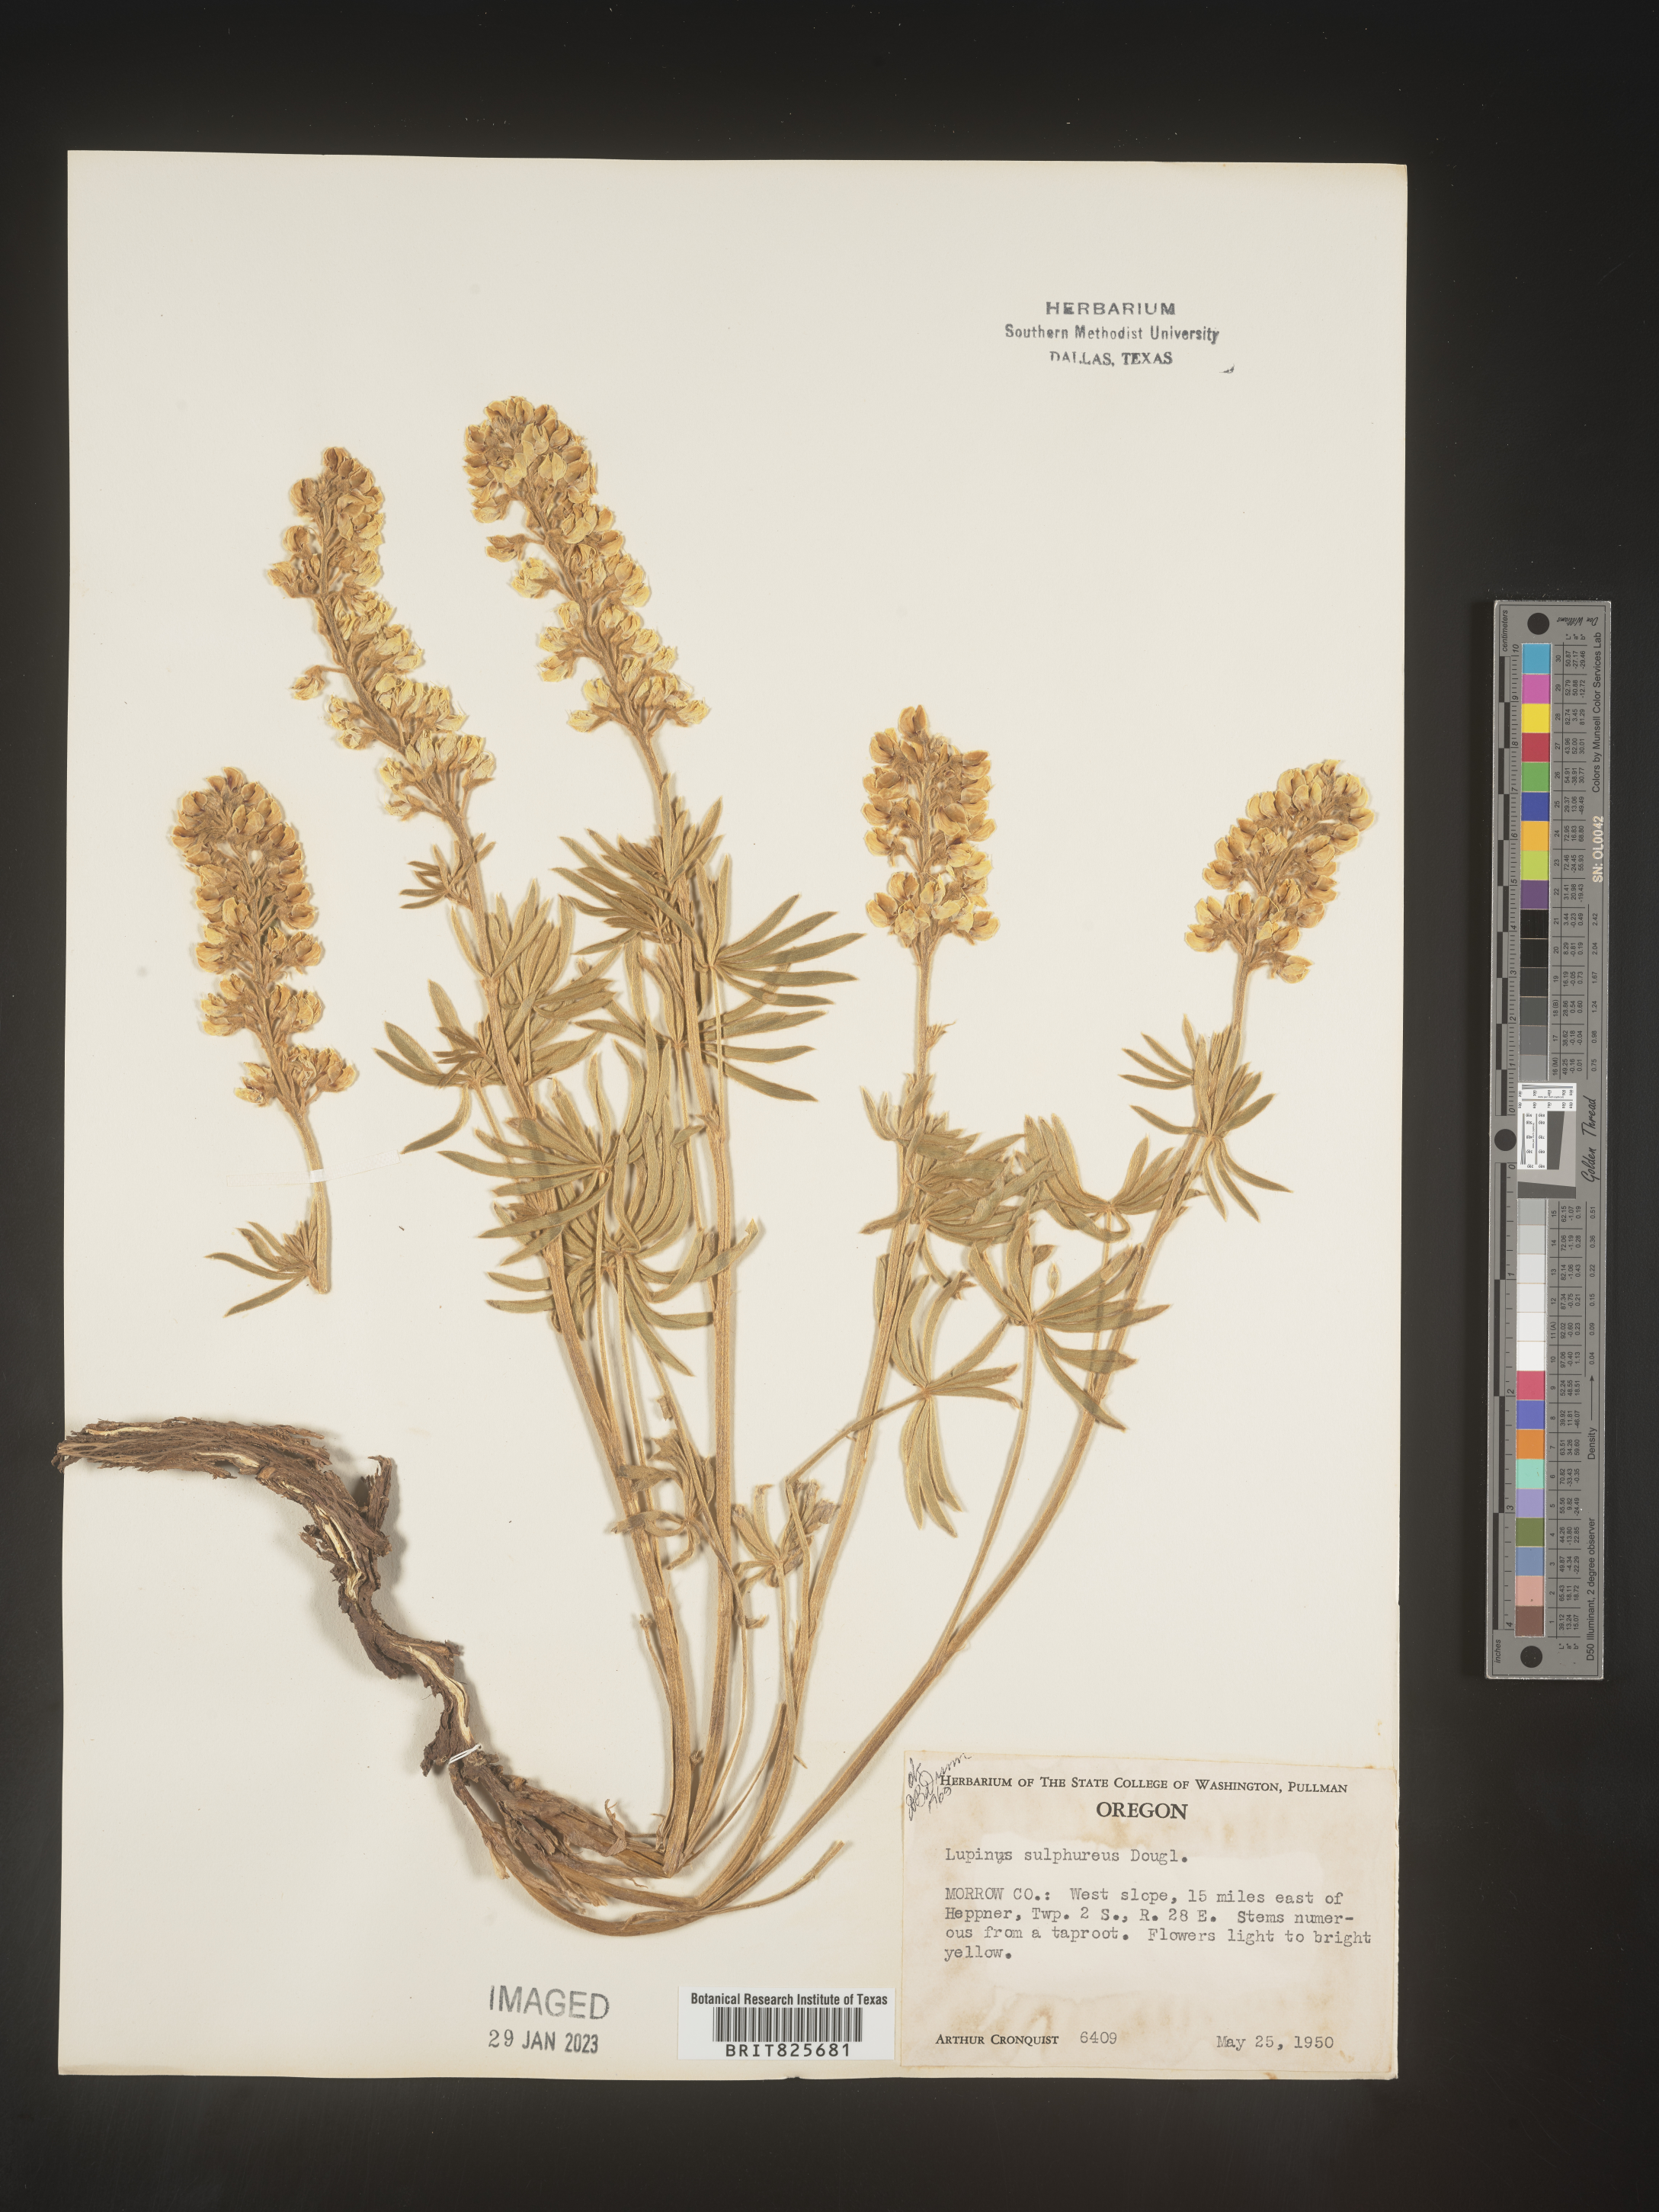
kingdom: Plantae
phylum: Tracheophyta
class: Magnoliopsida
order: Fabales
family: Fabaceae
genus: Lupinus
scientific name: Lupinus
